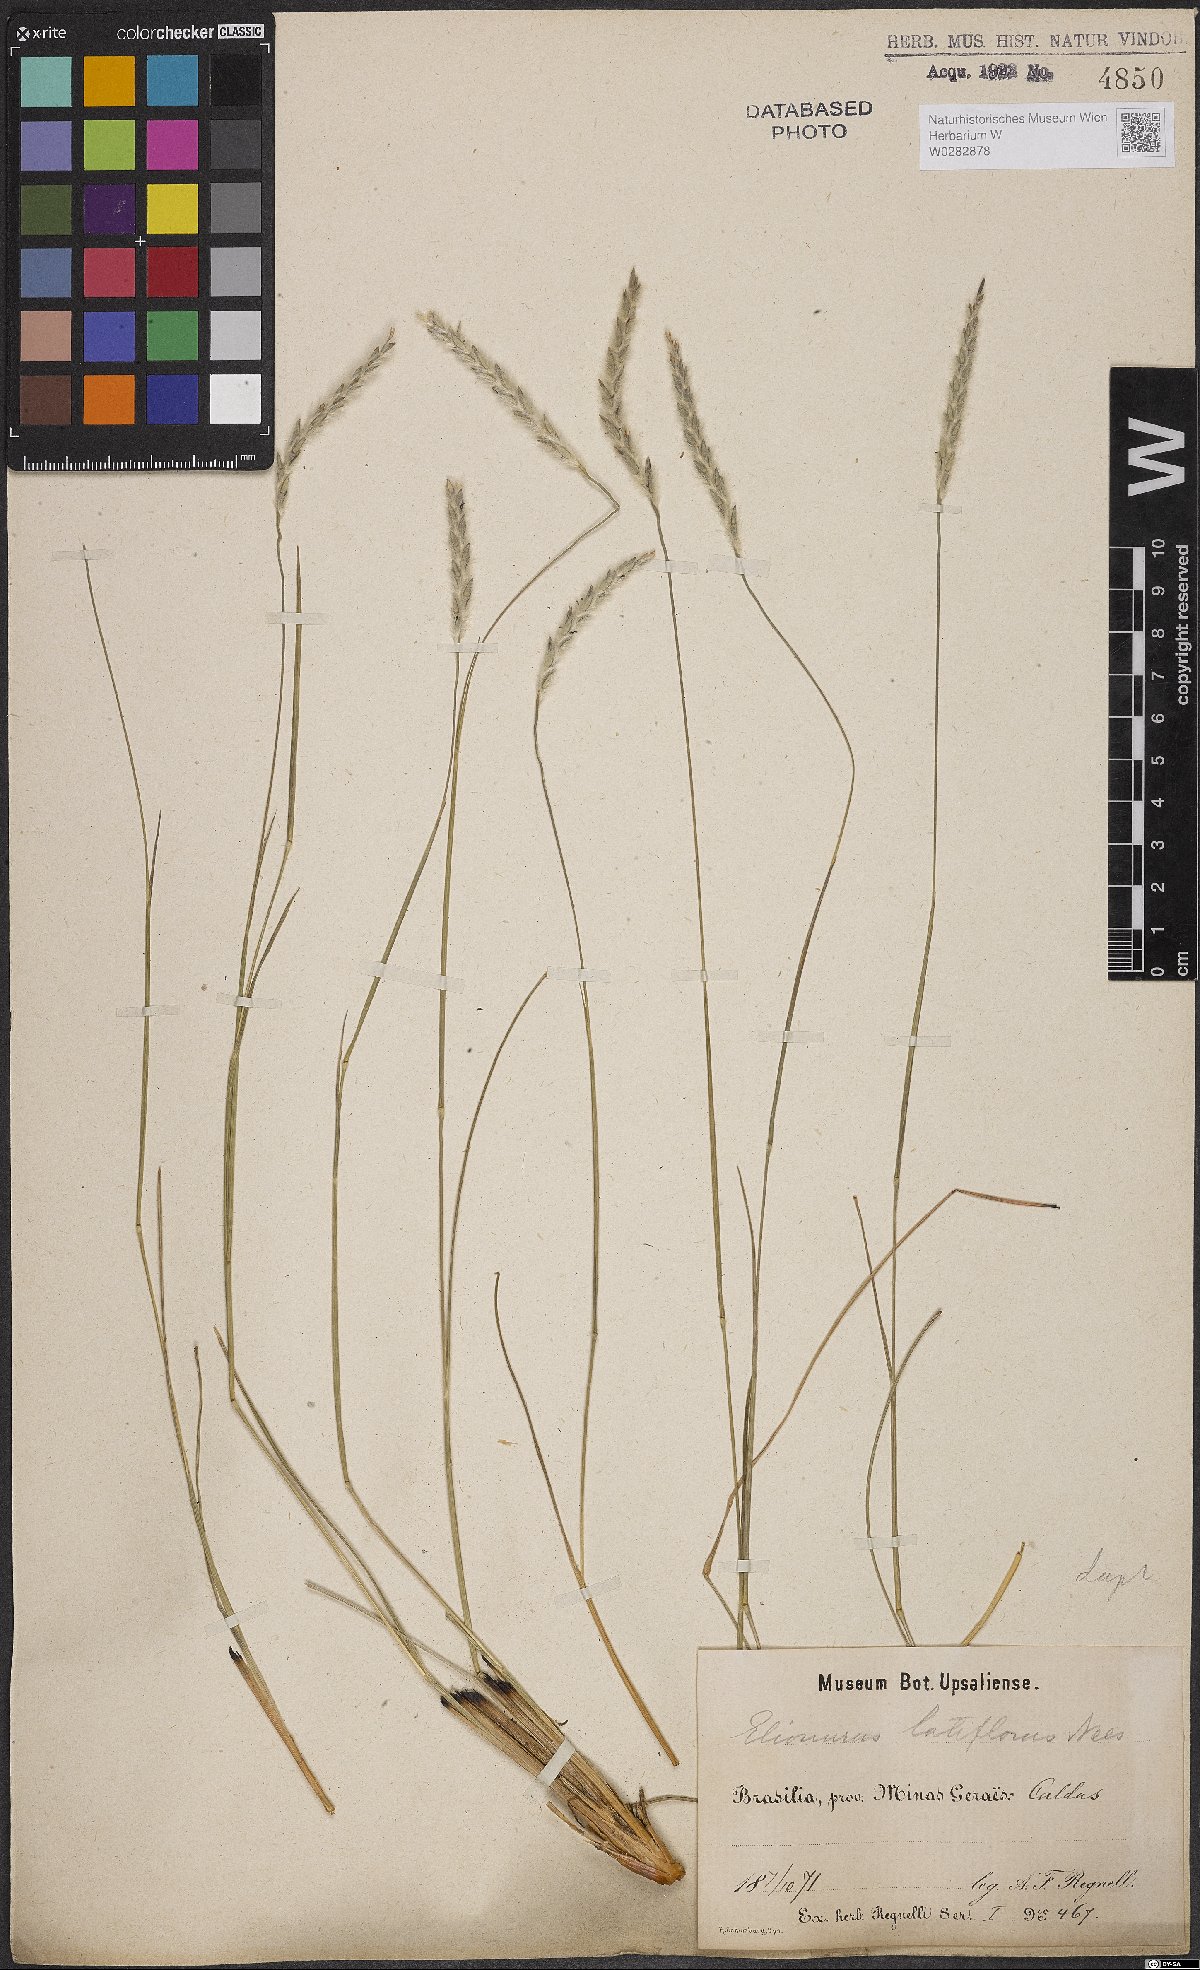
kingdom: Plantae
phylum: Tracheophyta
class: Liliopsida
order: Poales
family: Poaceae
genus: Elionurus
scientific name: Elionurus muticus
